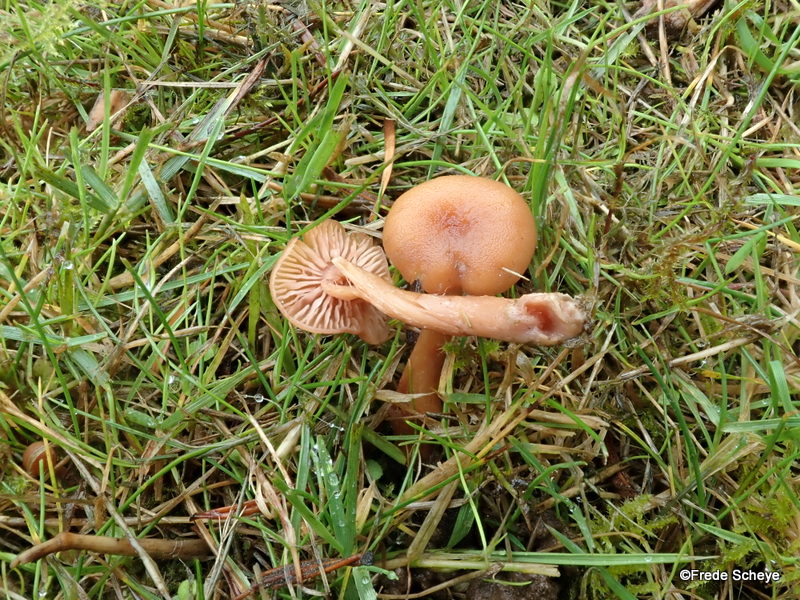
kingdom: Fungi
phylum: Basidiomycota
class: Agaricomycetes
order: Agaricales
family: Hydnangiaceae
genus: Laccaria
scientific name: Laccaria laccata
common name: rød ametysthat
